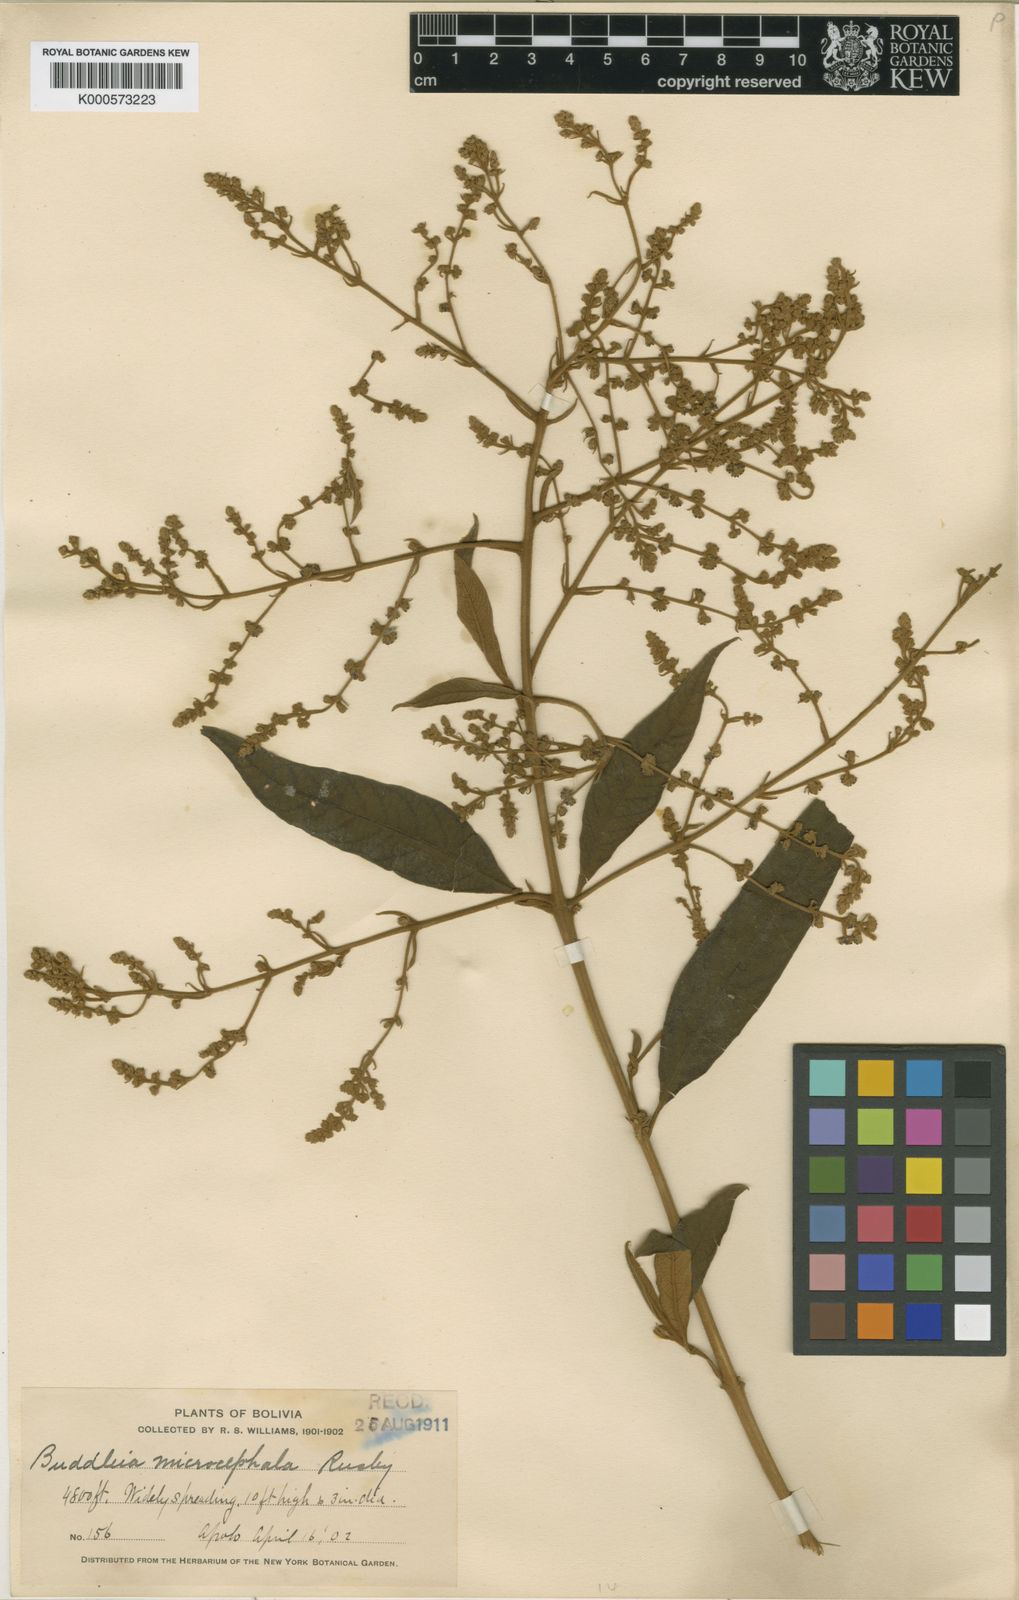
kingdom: Plantae
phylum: Tracheophyta
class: Magnoliopsida
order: Lamiales
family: Scrophulariaceae
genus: Buddleja
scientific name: Buddleja iresinoides
